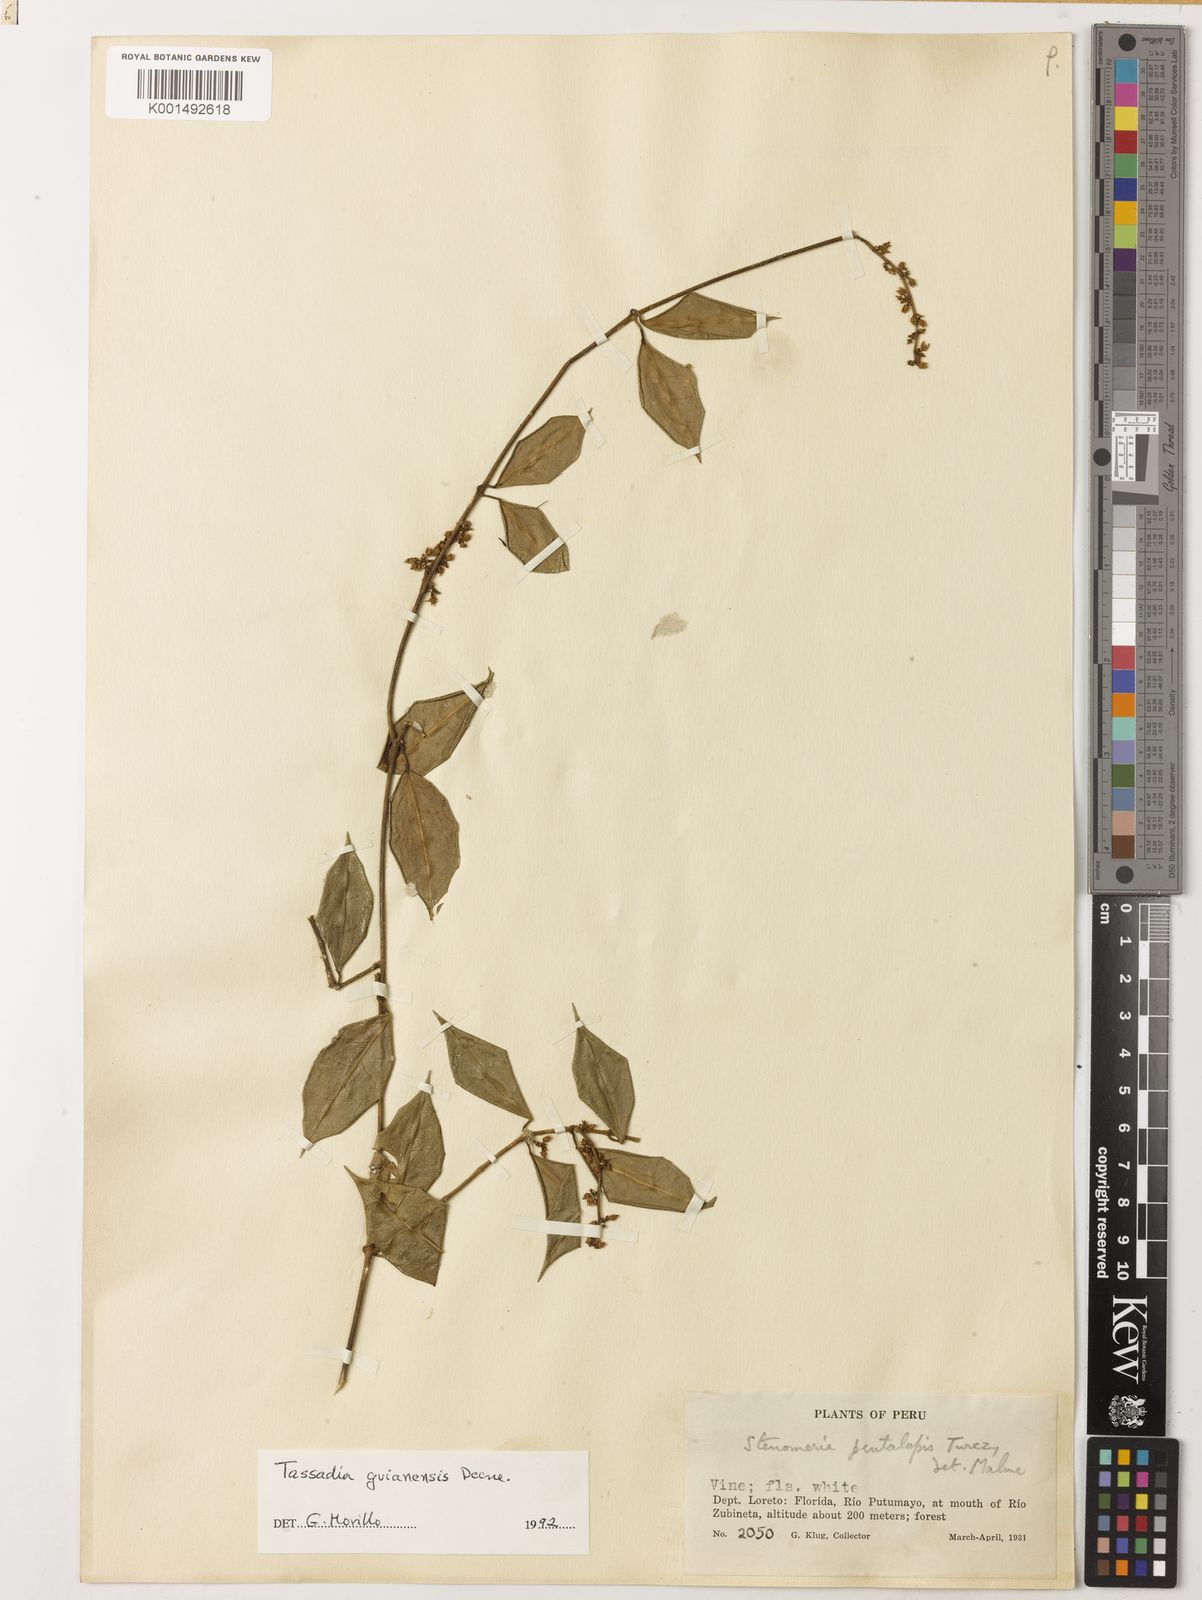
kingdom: Plantae
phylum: Tracheophyta
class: Magnoliopsida
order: Gentianales
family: Apocynaceae
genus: Tassadia
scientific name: Tassadia guianensis
